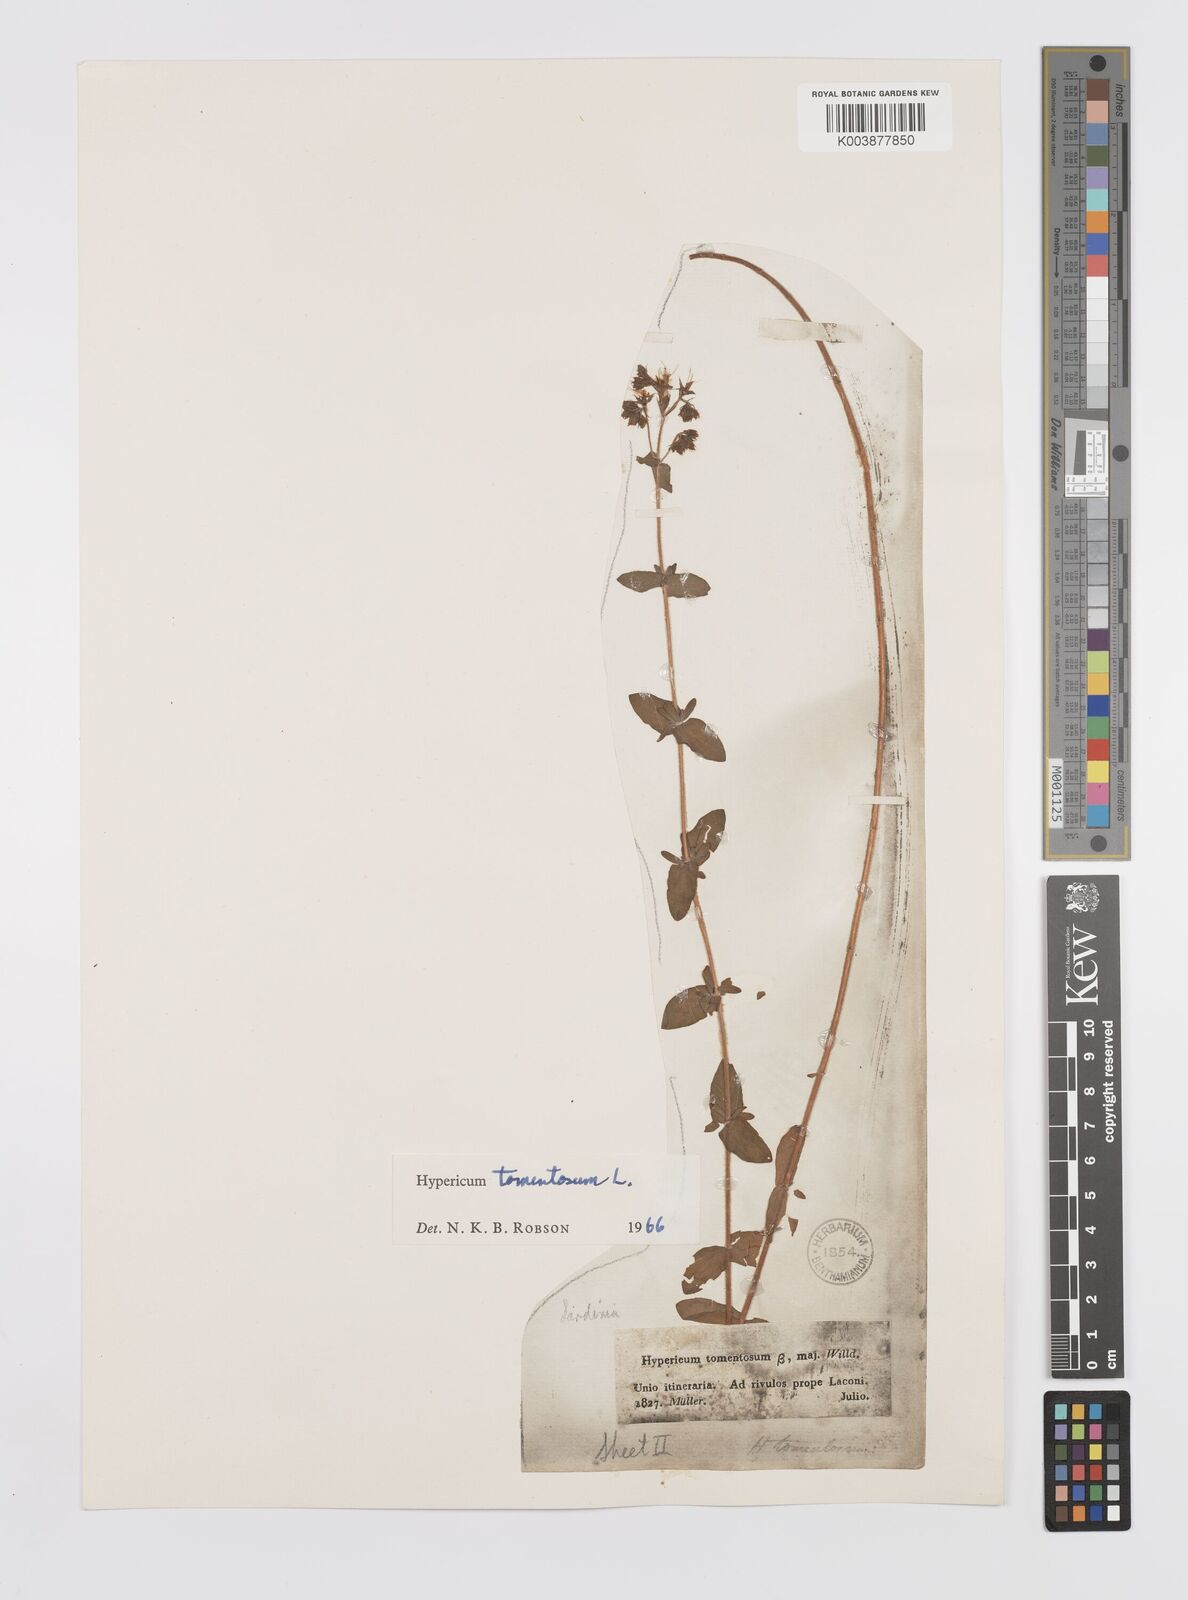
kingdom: Plantae
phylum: Tracheophyta
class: Magnoliopsida
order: Malpighiales
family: Hypericaceae
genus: Hypericum
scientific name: Hypericum tomentosum
